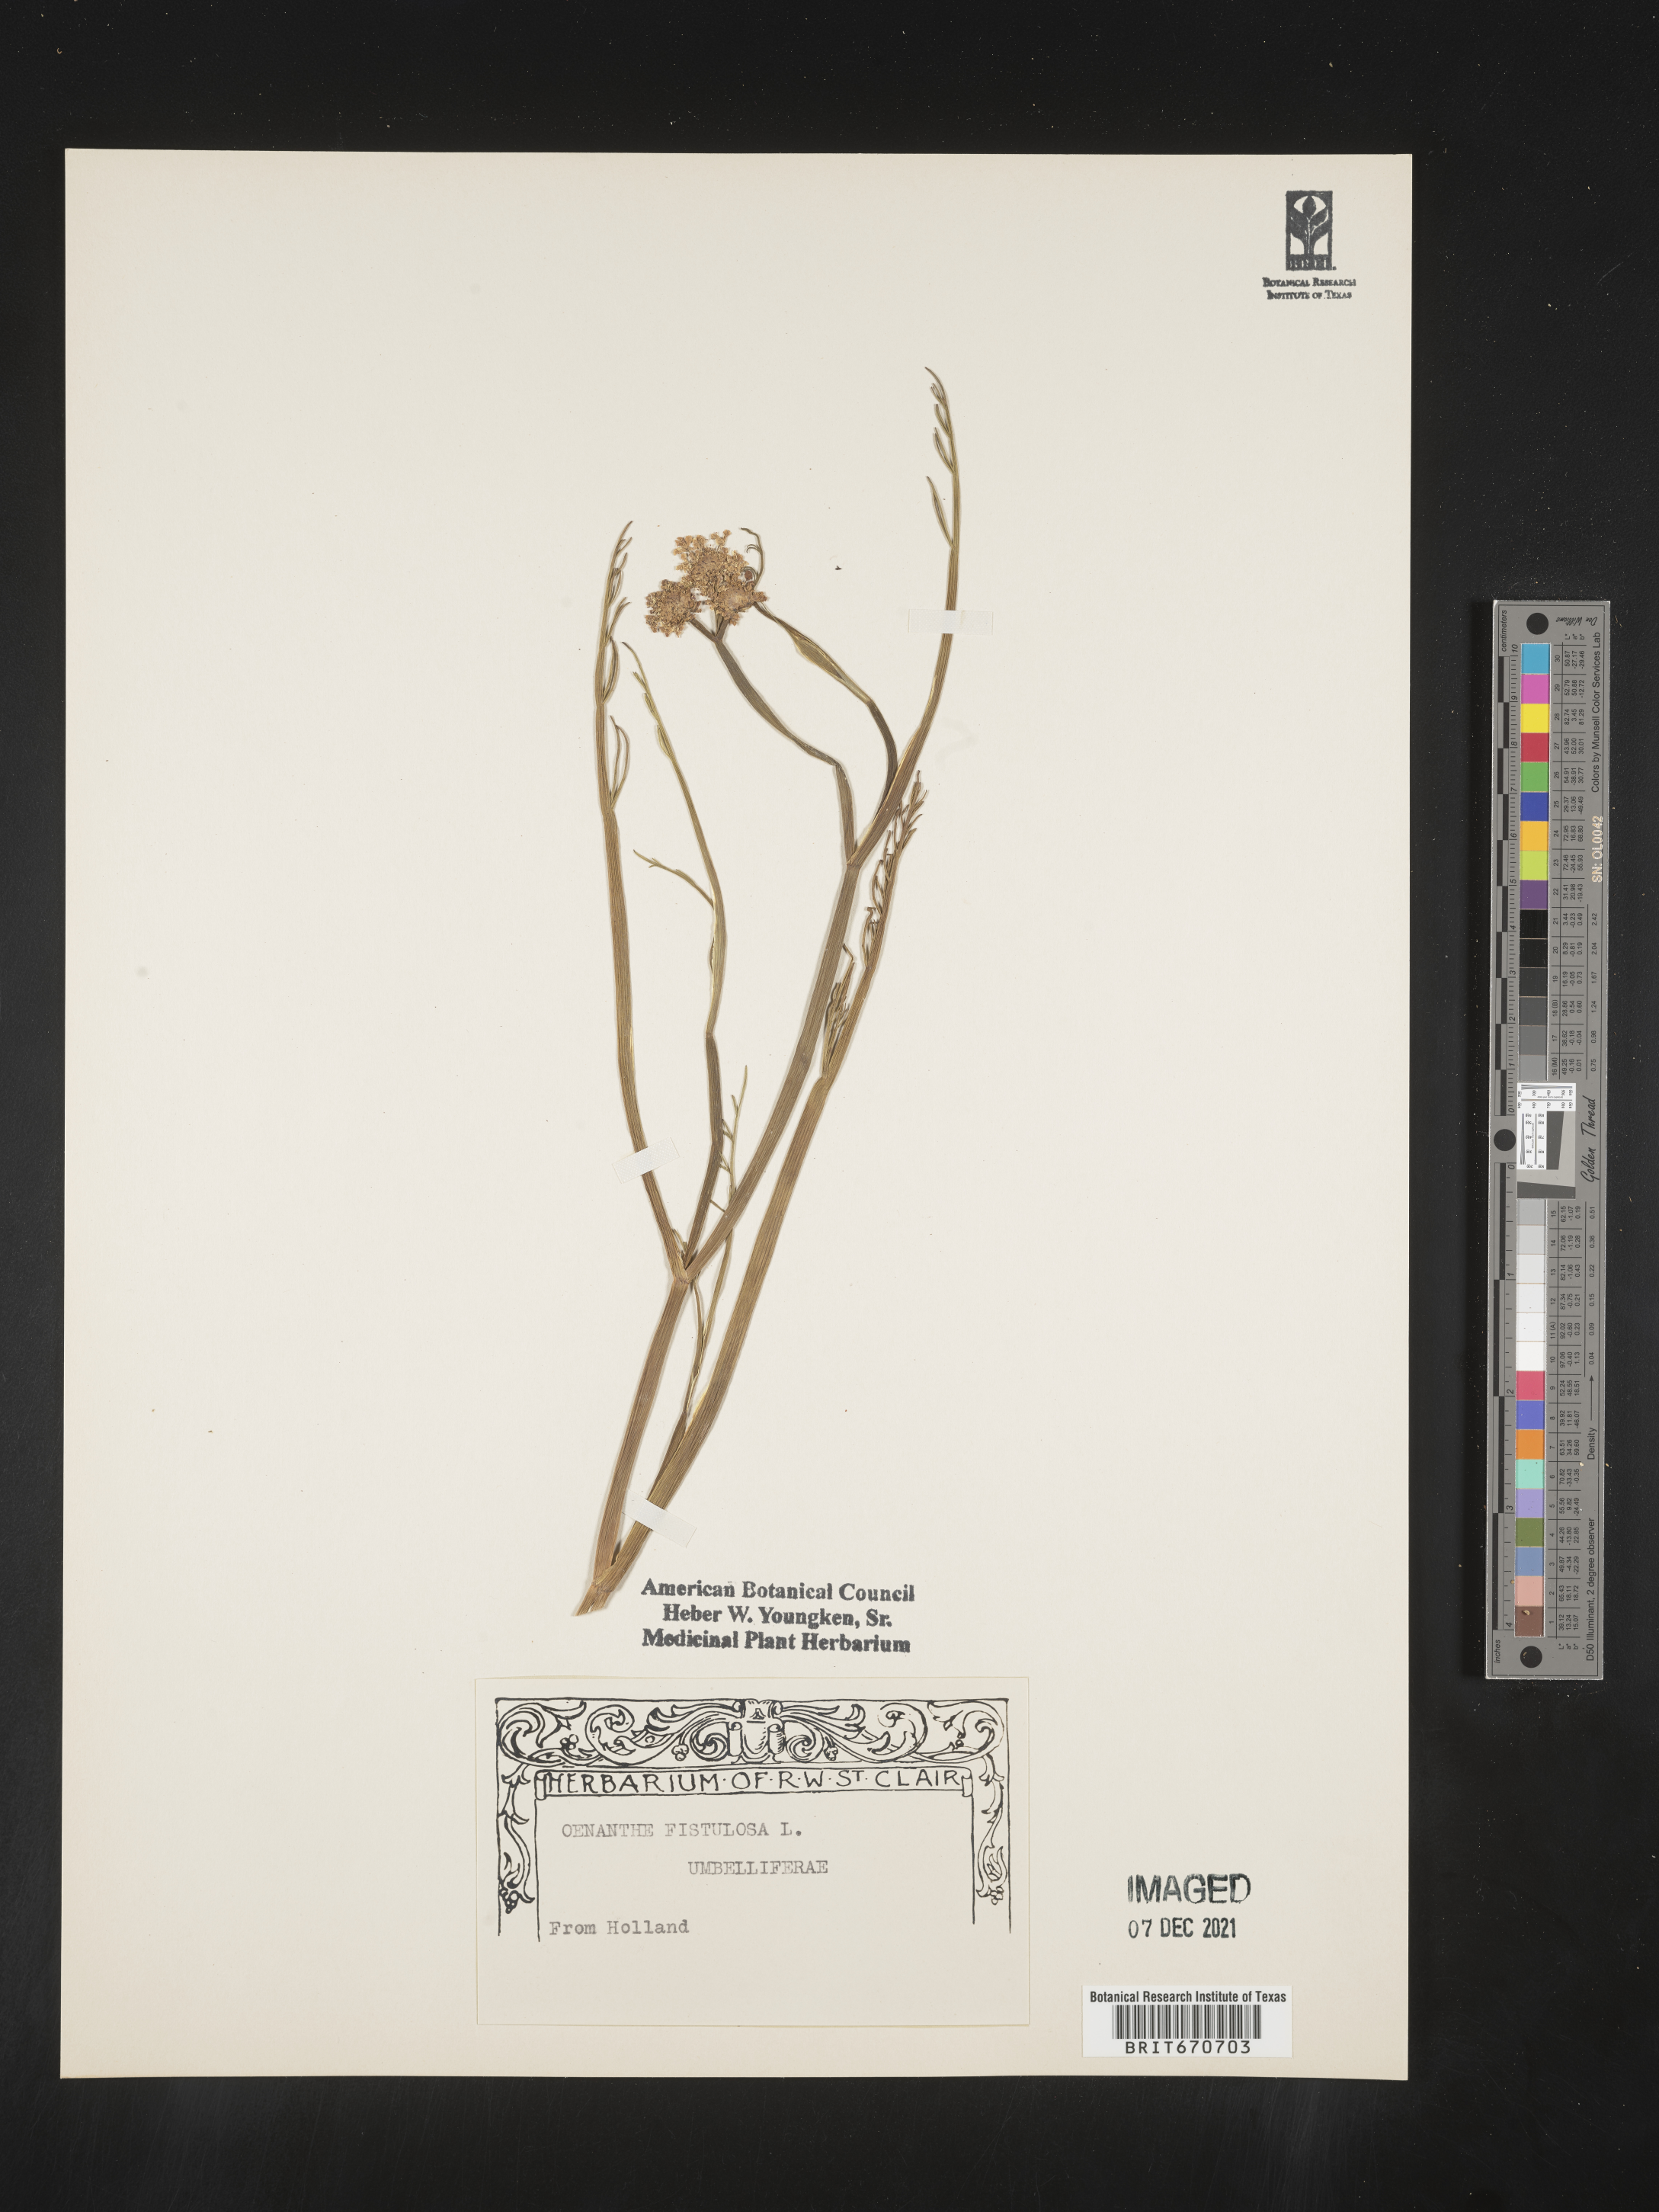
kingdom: Plantae
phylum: Tracheophyta
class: Magnoliopsida
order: Apiales
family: Apiaceae
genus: Oenanthe
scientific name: Oenanthe
